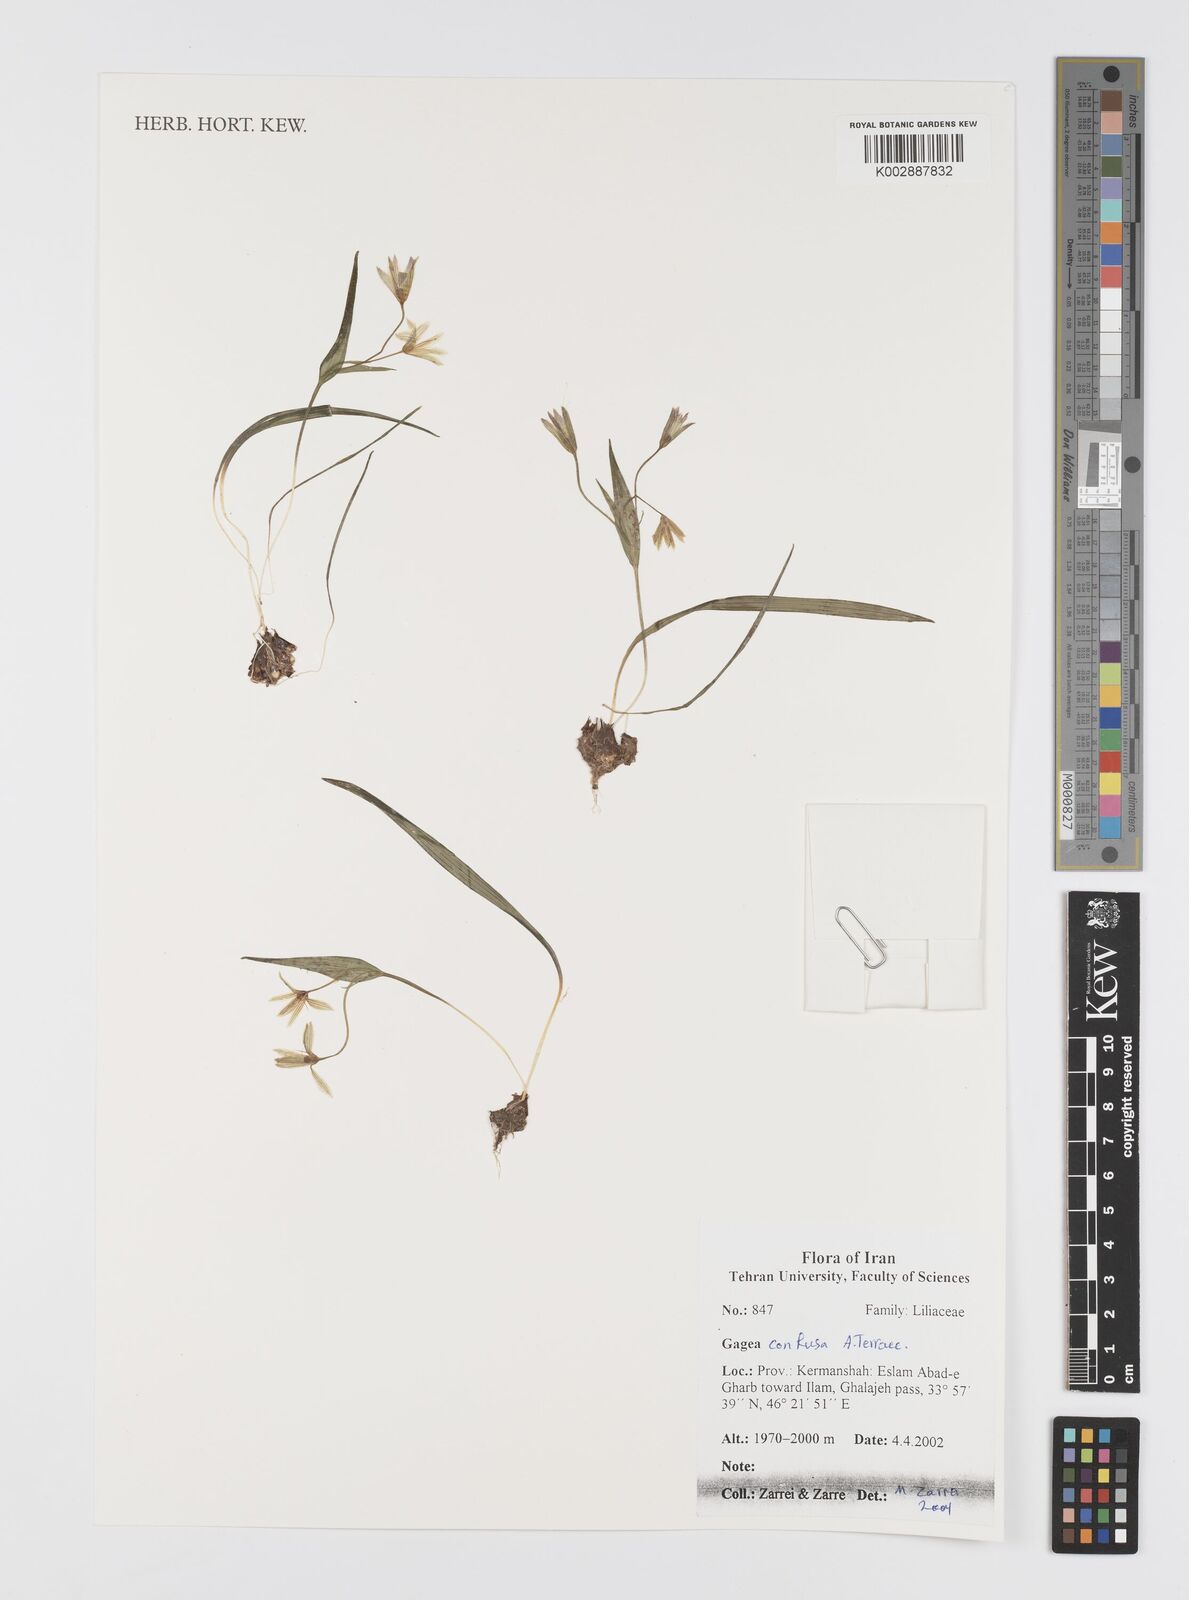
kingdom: Plantae
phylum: Tracheophyta
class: Liliopsida
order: Liliales
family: Liliaceae
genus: Gagea
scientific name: Gagea confusa
